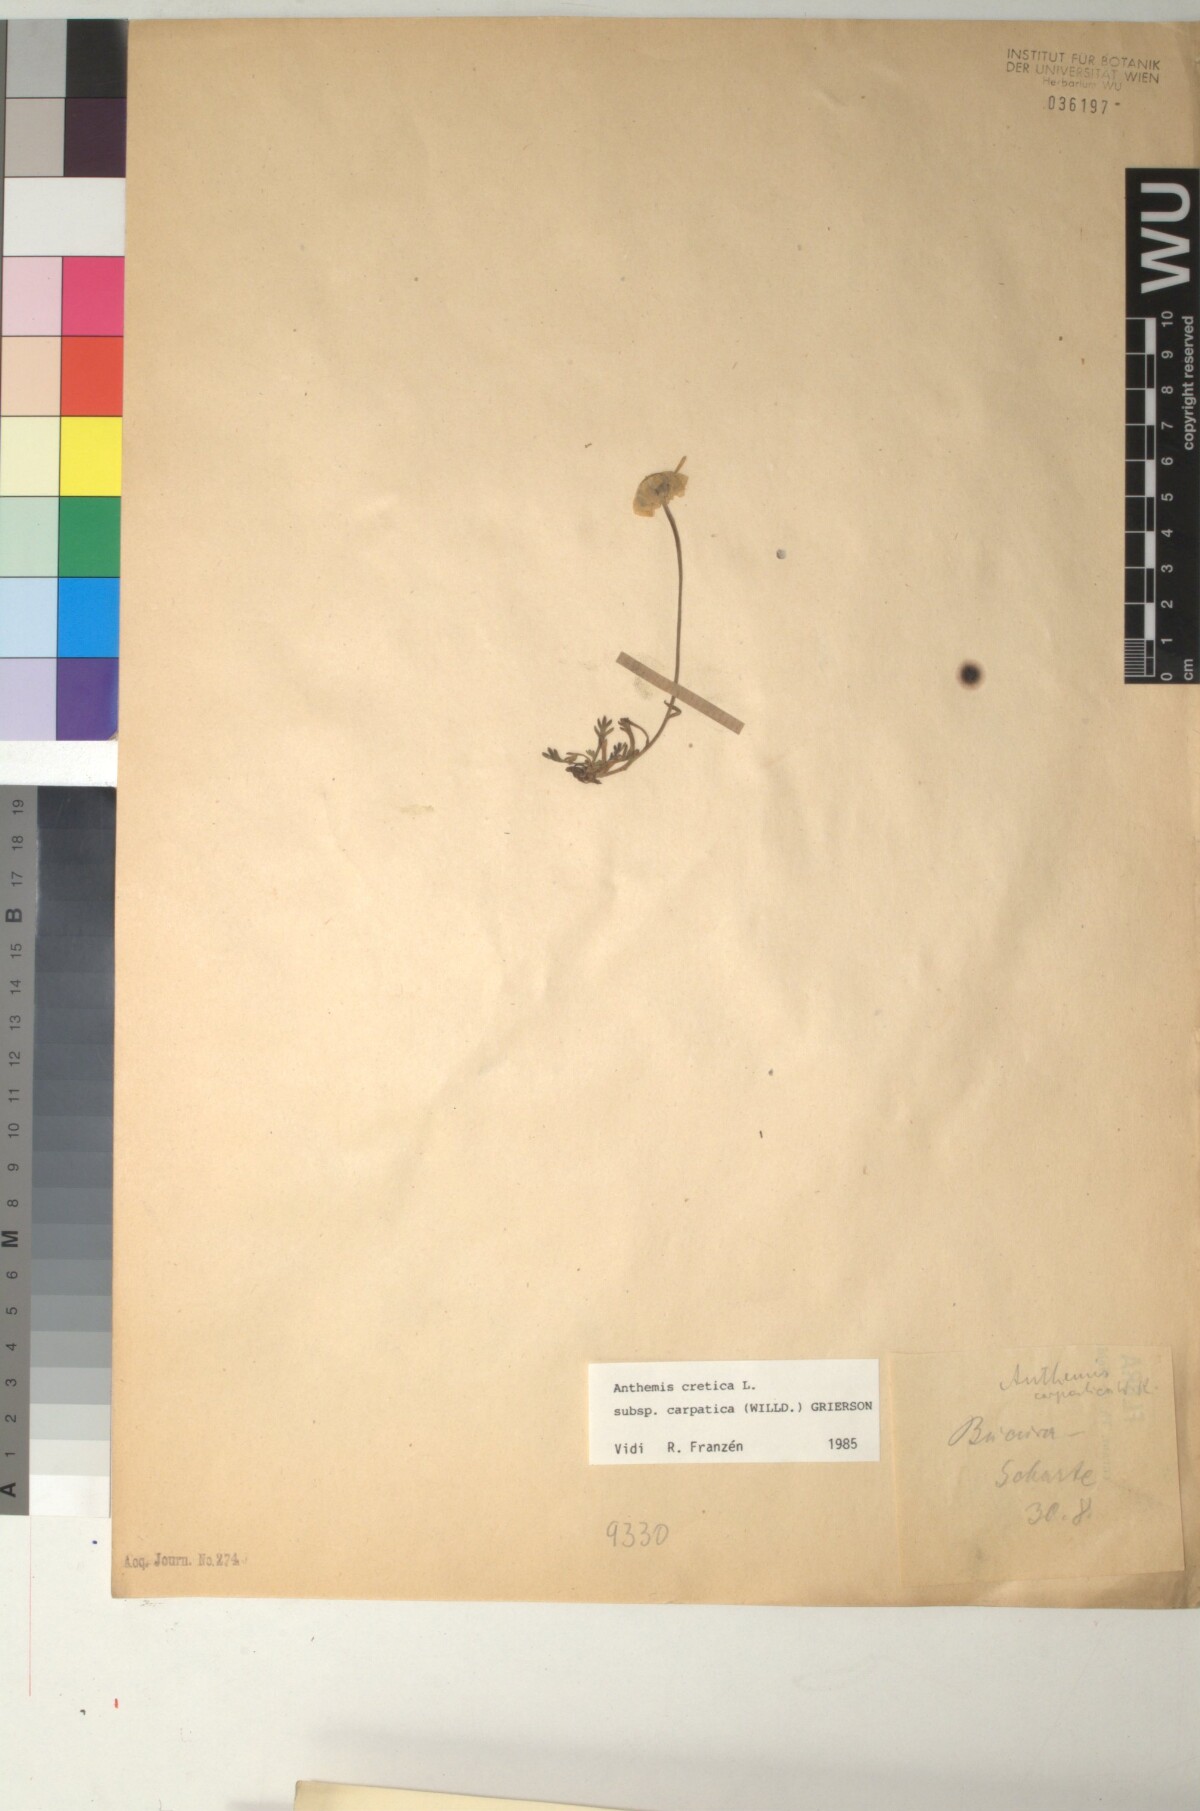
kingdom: Plantae
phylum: Tracheophyta
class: Magnoliopsida
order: Asterales
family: Asteraceae
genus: Anthemis
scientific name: Anthemis cretica
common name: Mountain dog-daisy
